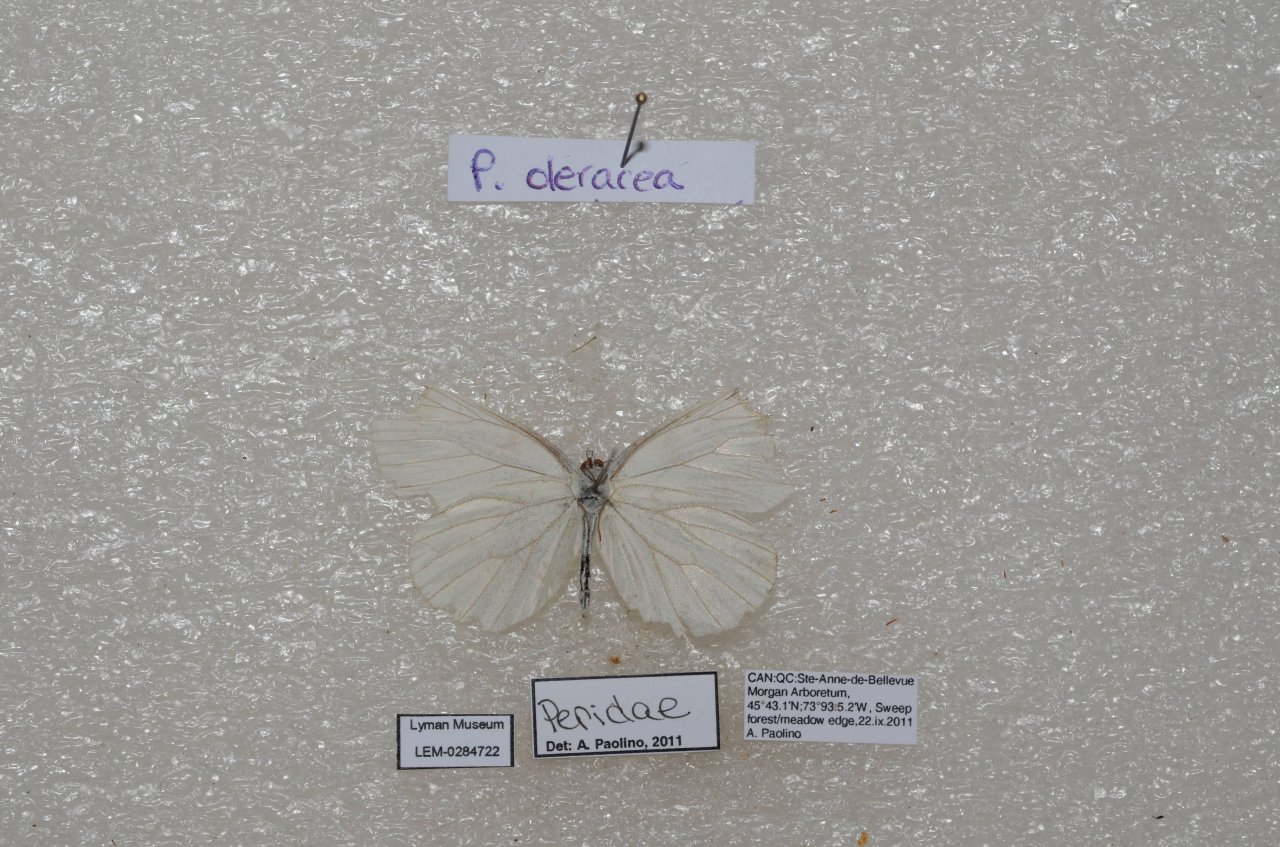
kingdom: Animalia
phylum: Arthropoda
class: Insecta
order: Lepidoptera
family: Pieridae
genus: Pieris
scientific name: Pieris oleracea
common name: Mustard White
